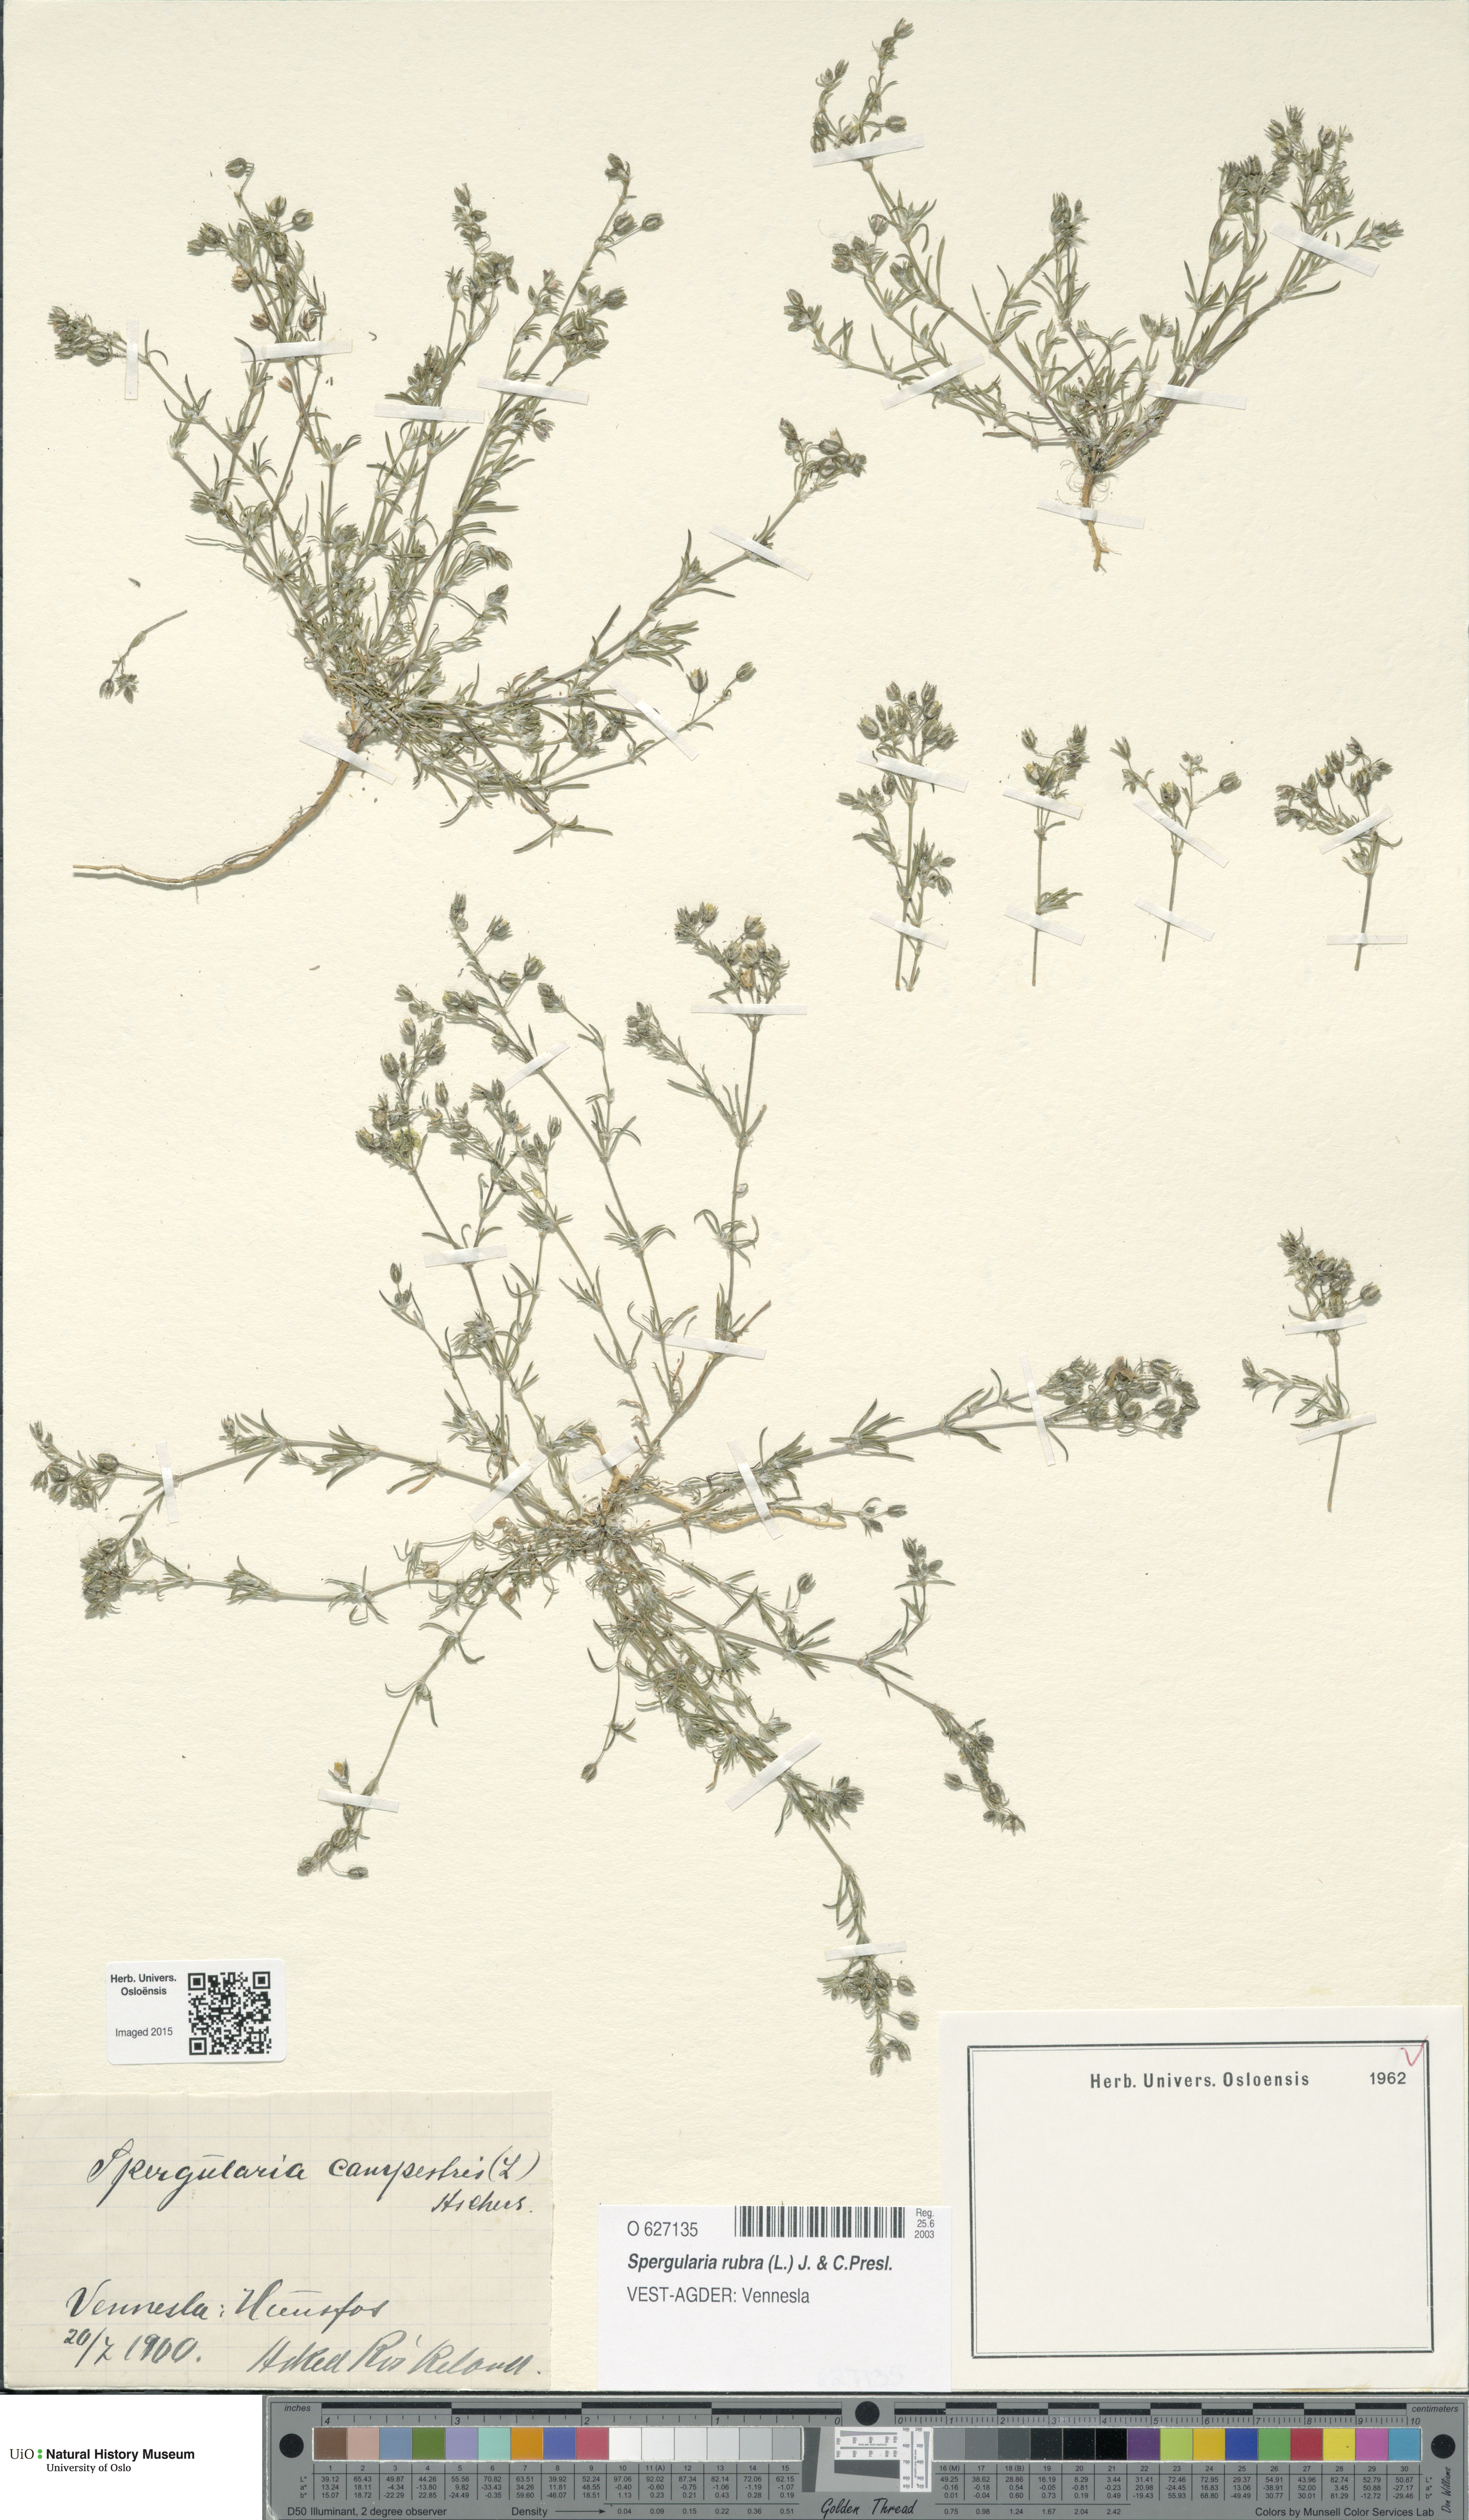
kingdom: Plantae
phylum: Tracheophyta
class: Magnoliopsida
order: Caryophyllales
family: Caryophyllaceae
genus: Spergularia
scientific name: Spergularia rubra
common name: Red sand-spurrey
